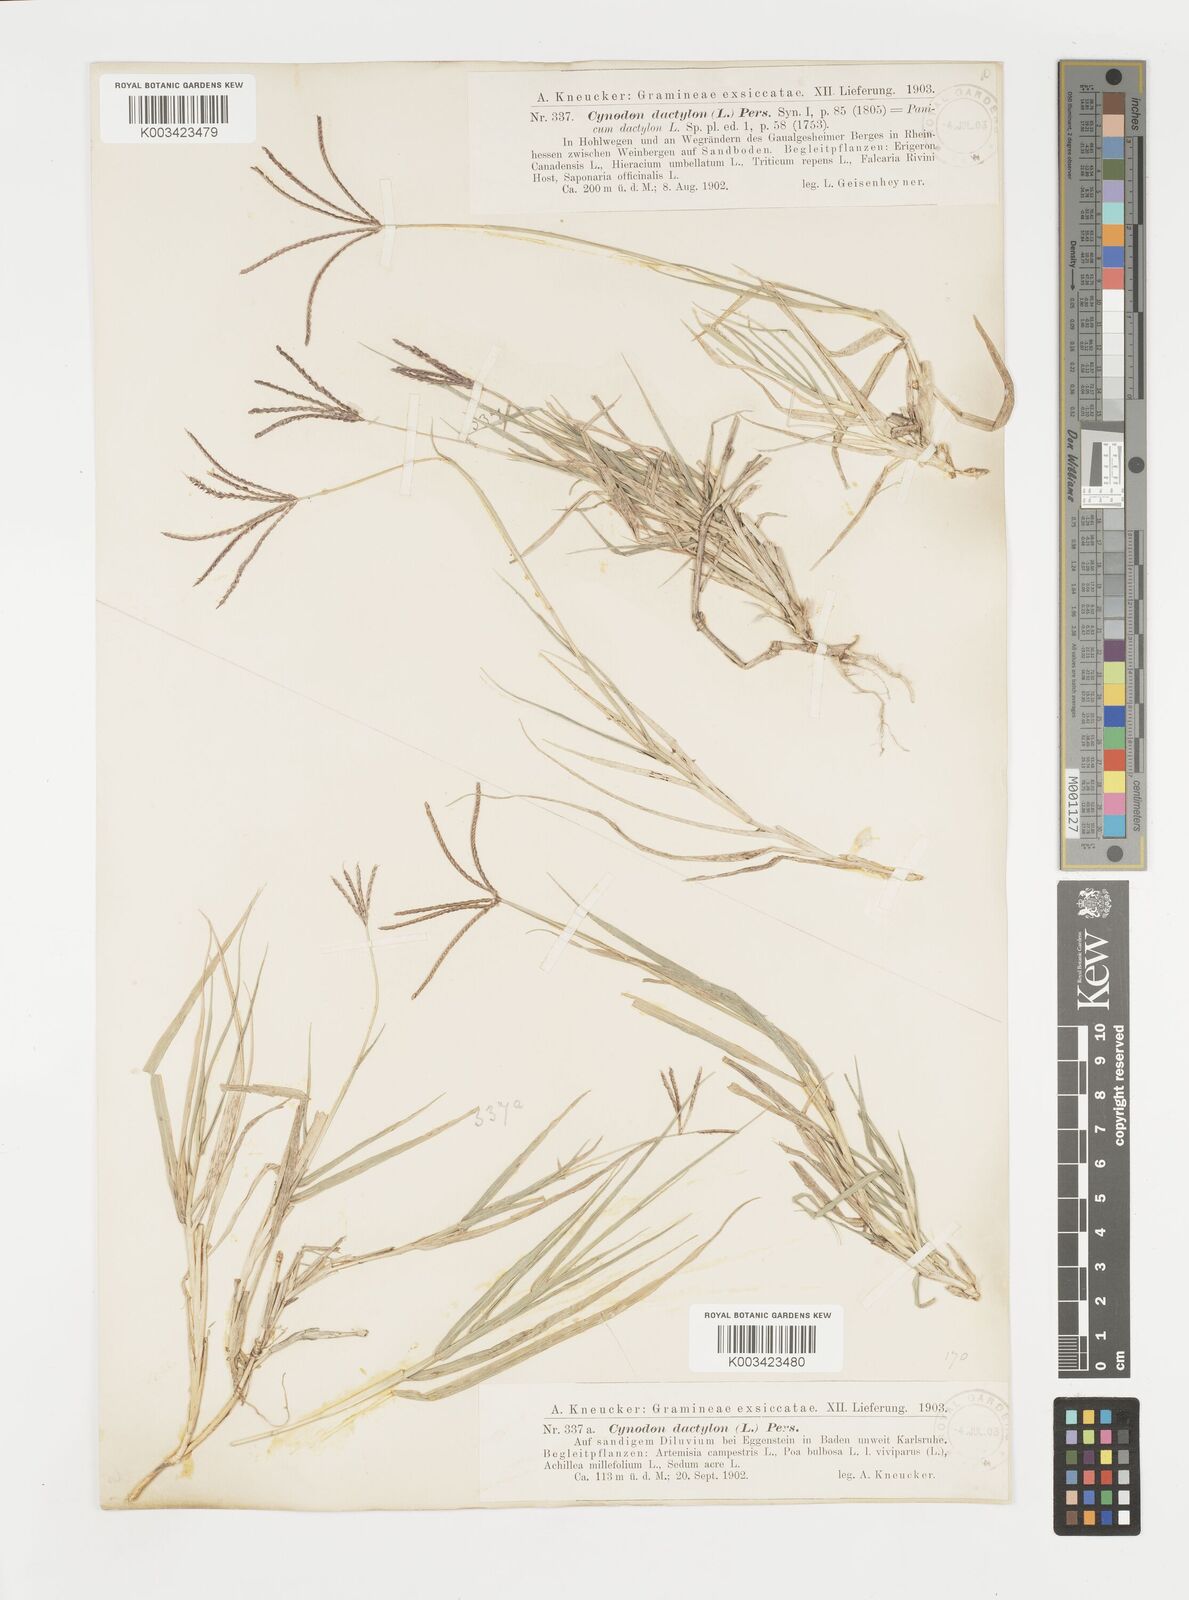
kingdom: Plantae
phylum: Tracheophyta
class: Liliopsida
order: Poales
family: Poaceae
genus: Cynodon
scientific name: Cynodon dactylon
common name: Bermuda grass
